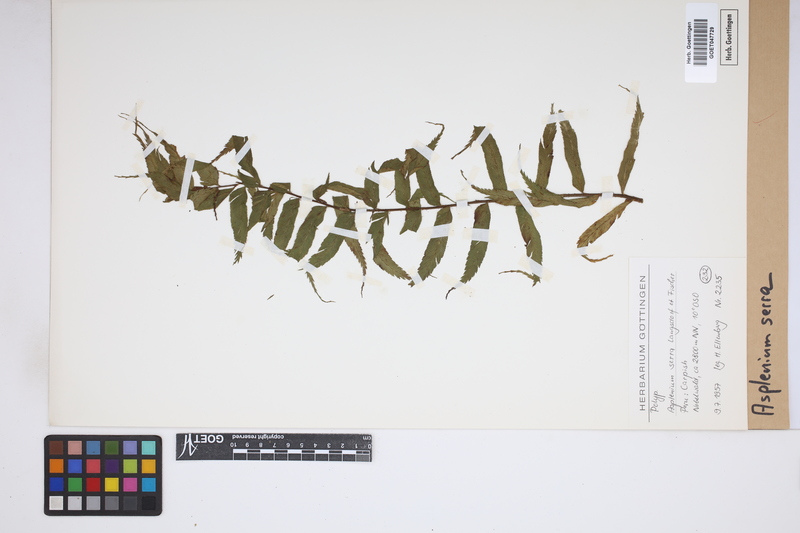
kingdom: Plantae
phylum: Tracheophyta
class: Polypodiopsida
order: Polypodiales
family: Aspleniaceae
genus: Asplenium
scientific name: Asplenium serra
